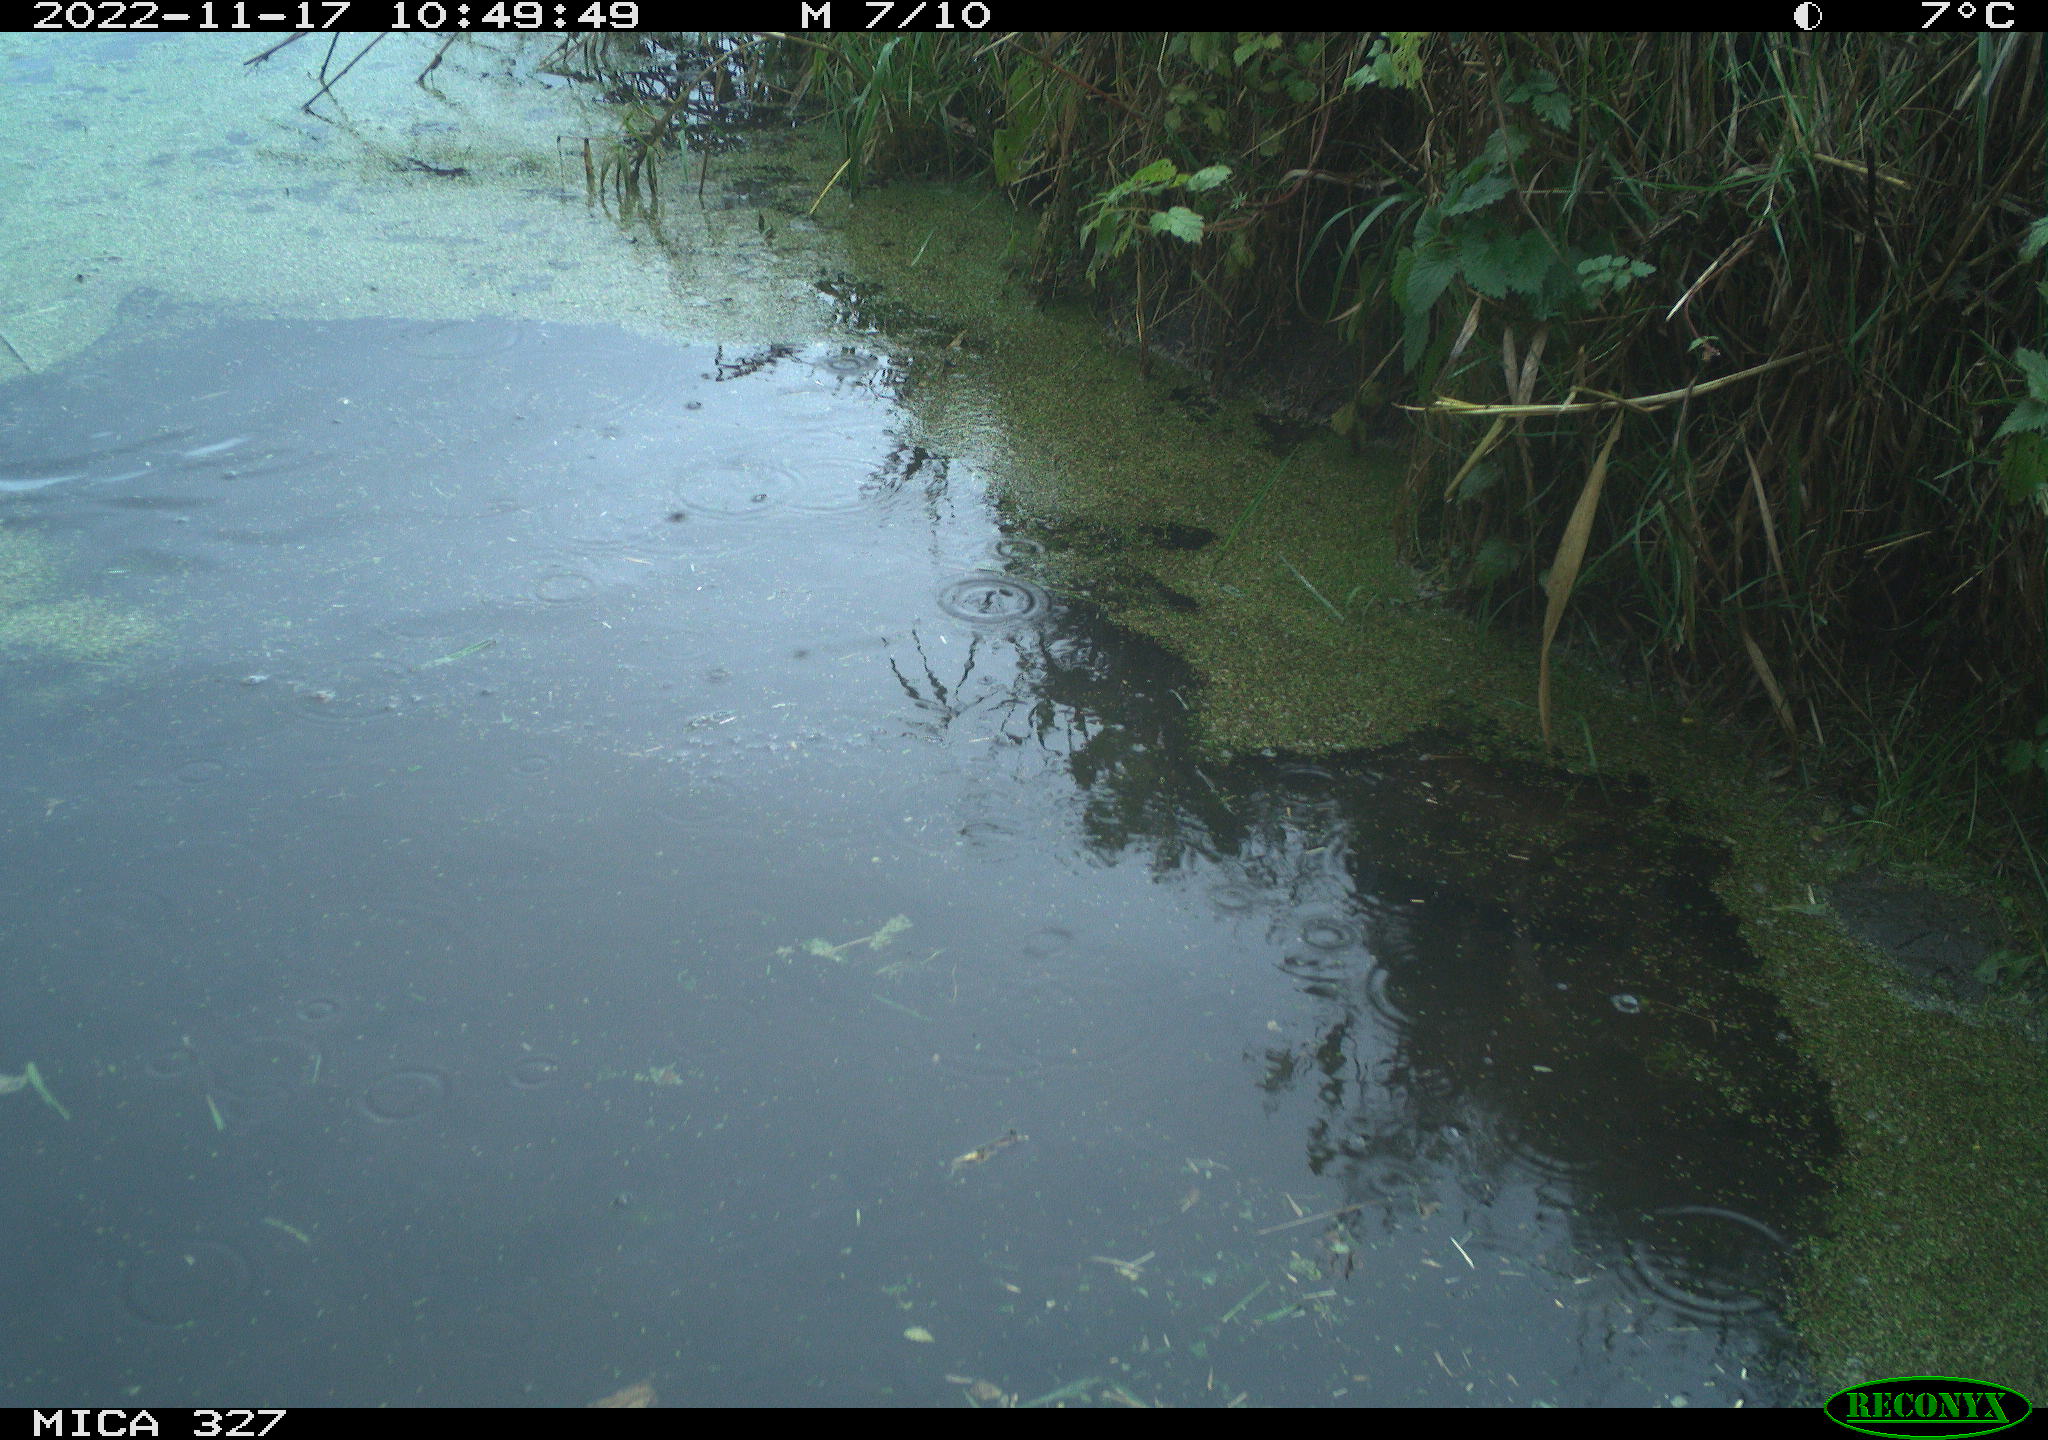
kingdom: Animalia
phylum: Chordata
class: Aves
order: Gruiformes
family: Rallidae
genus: Gallinula
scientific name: Gallinula chloropus
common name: Common moorhen
